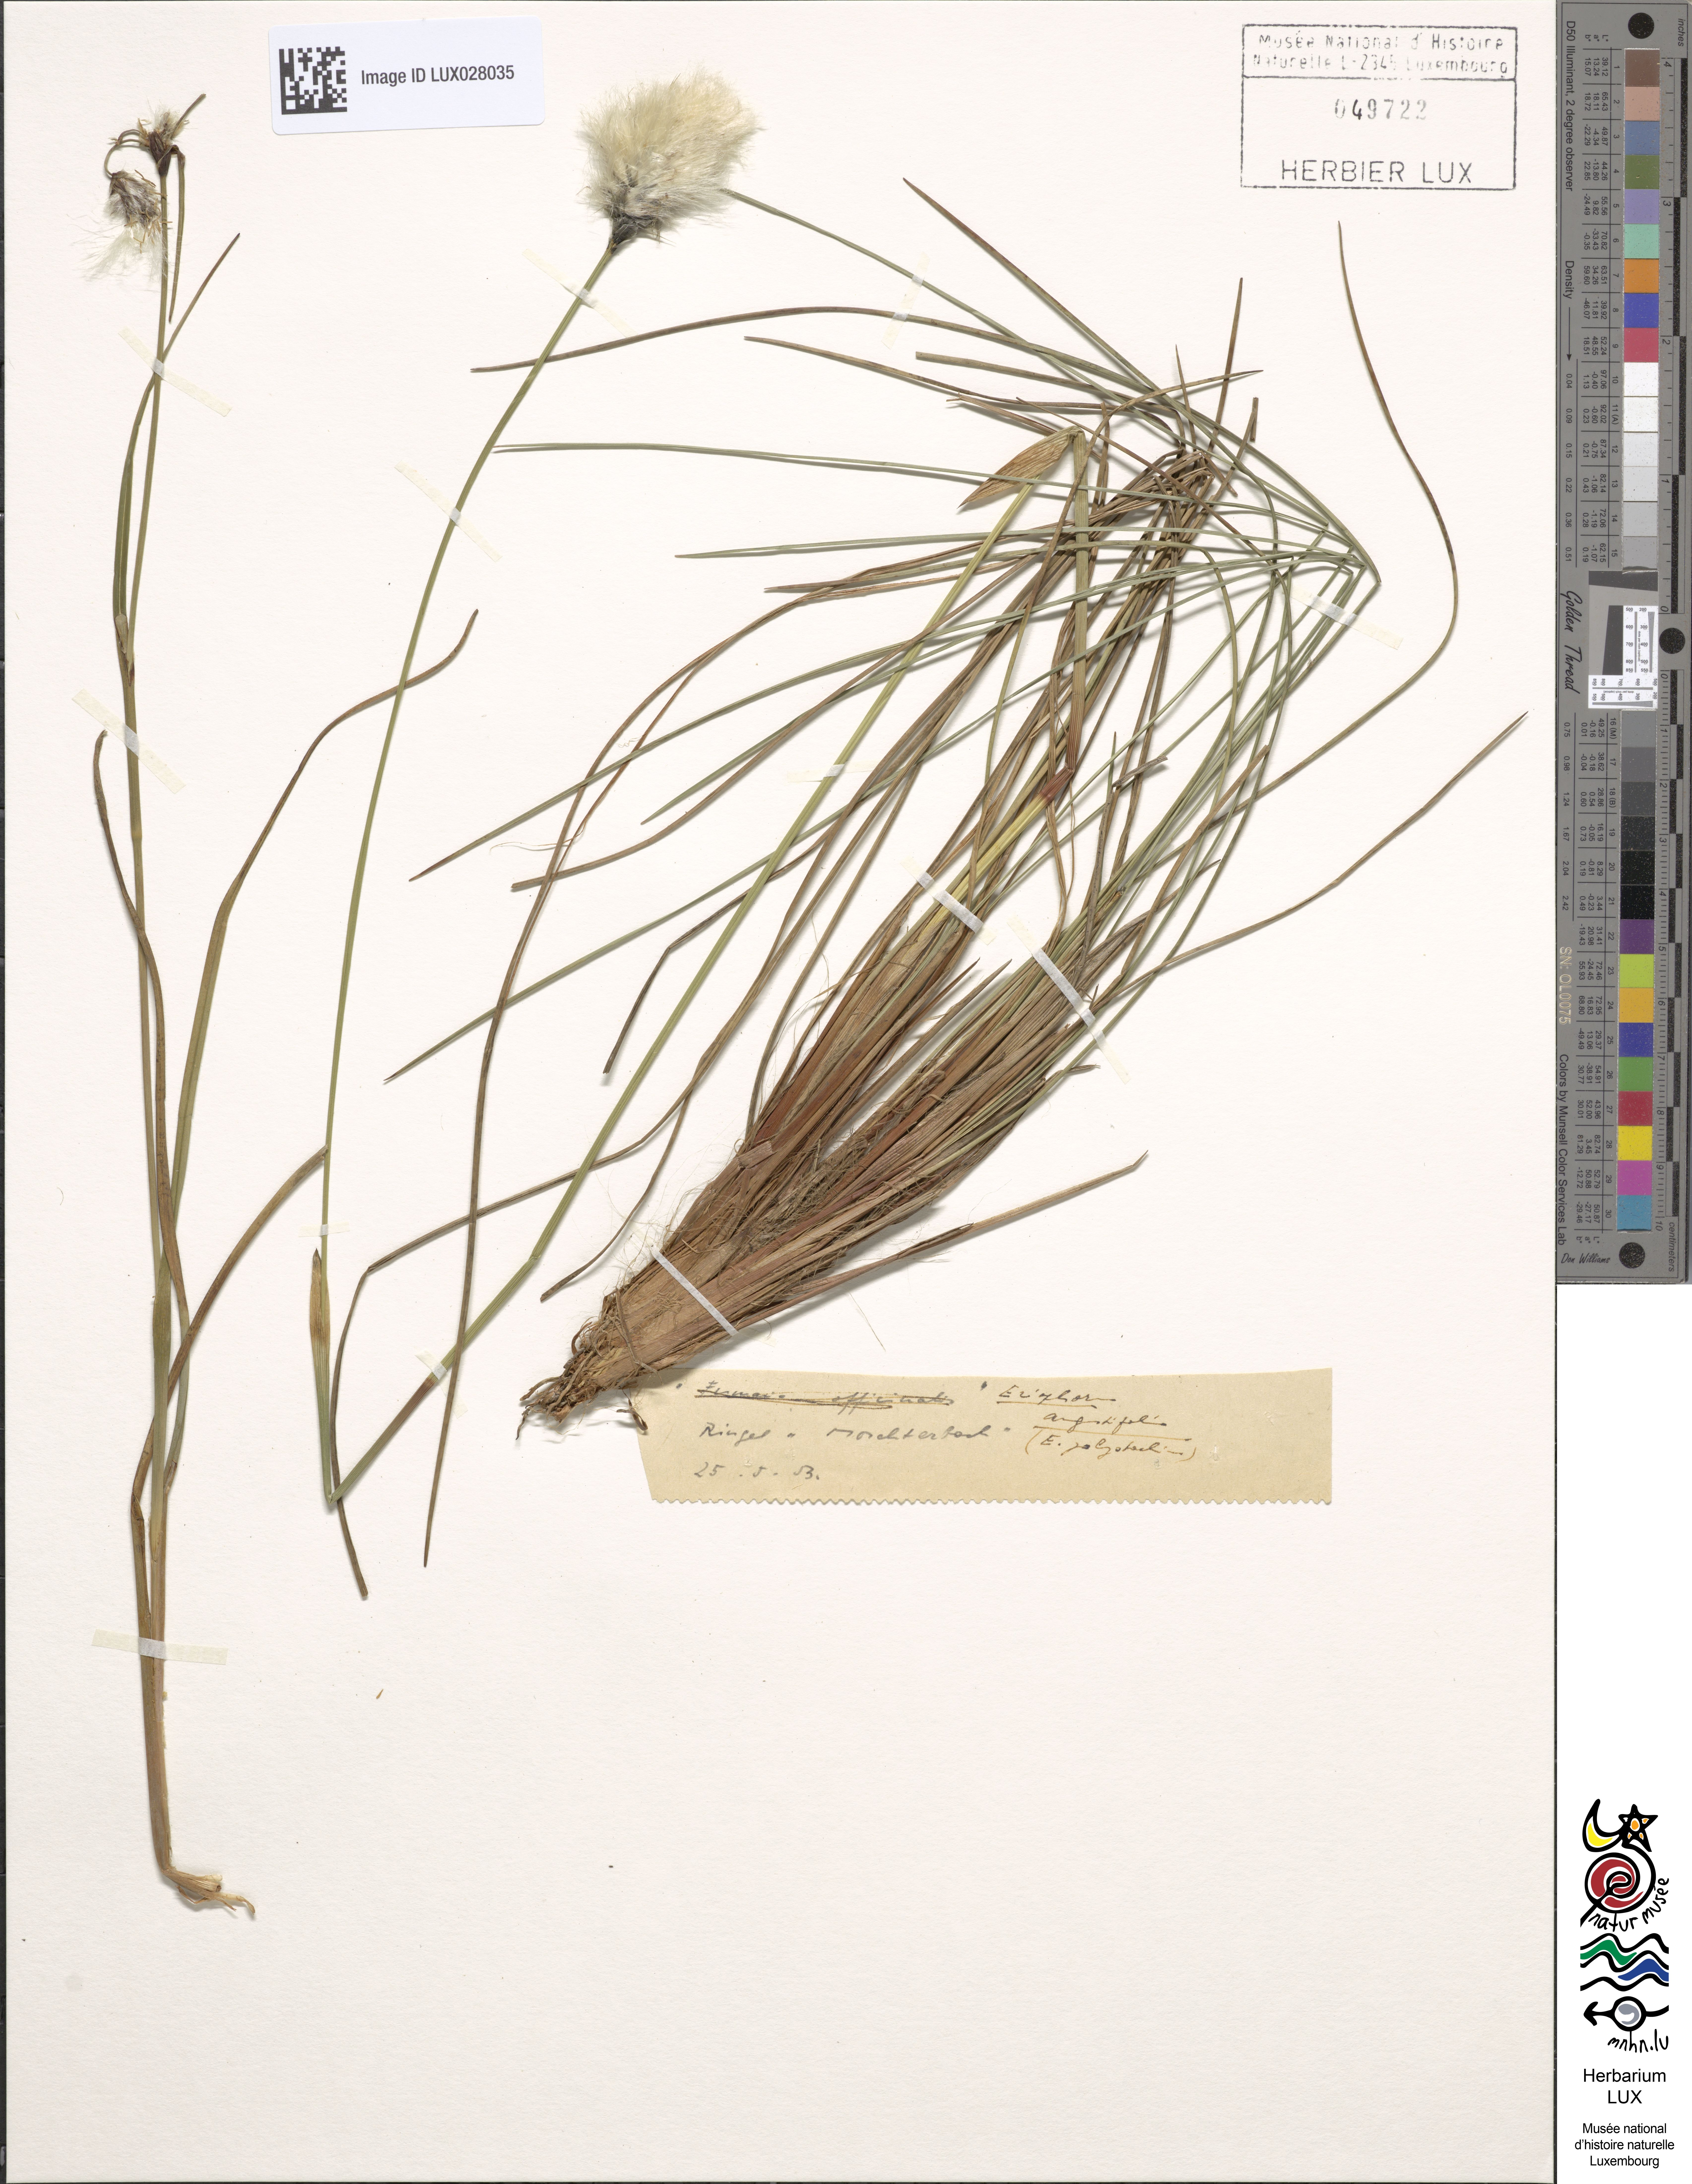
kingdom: Plantae
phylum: Tracheophyta
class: Liliopsida
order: Poales
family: Cyperaceae
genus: Eriophorum
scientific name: Eriophorum angustifolium
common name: Common cottongrass
